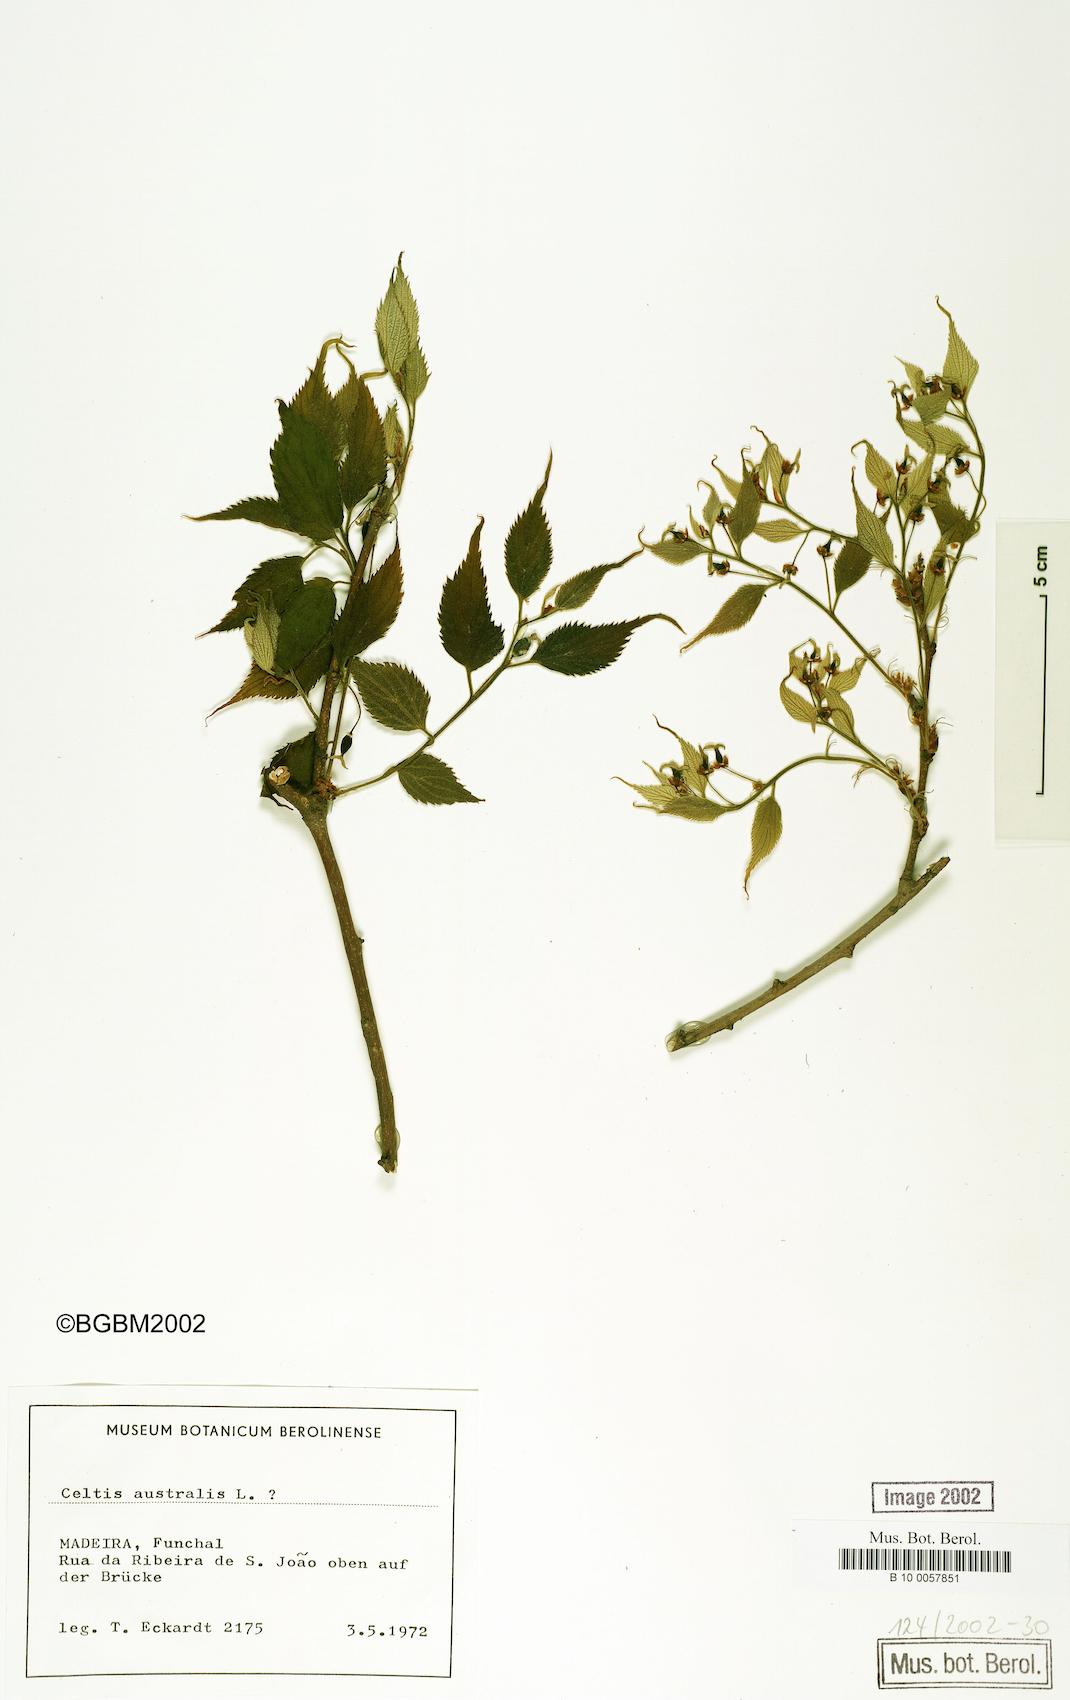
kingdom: Plantae
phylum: Tracheophyta
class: Magnoliopsida
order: Rosales
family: Cannabaceae
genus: Celtis
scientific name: Celtis australis
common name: European hackberry
